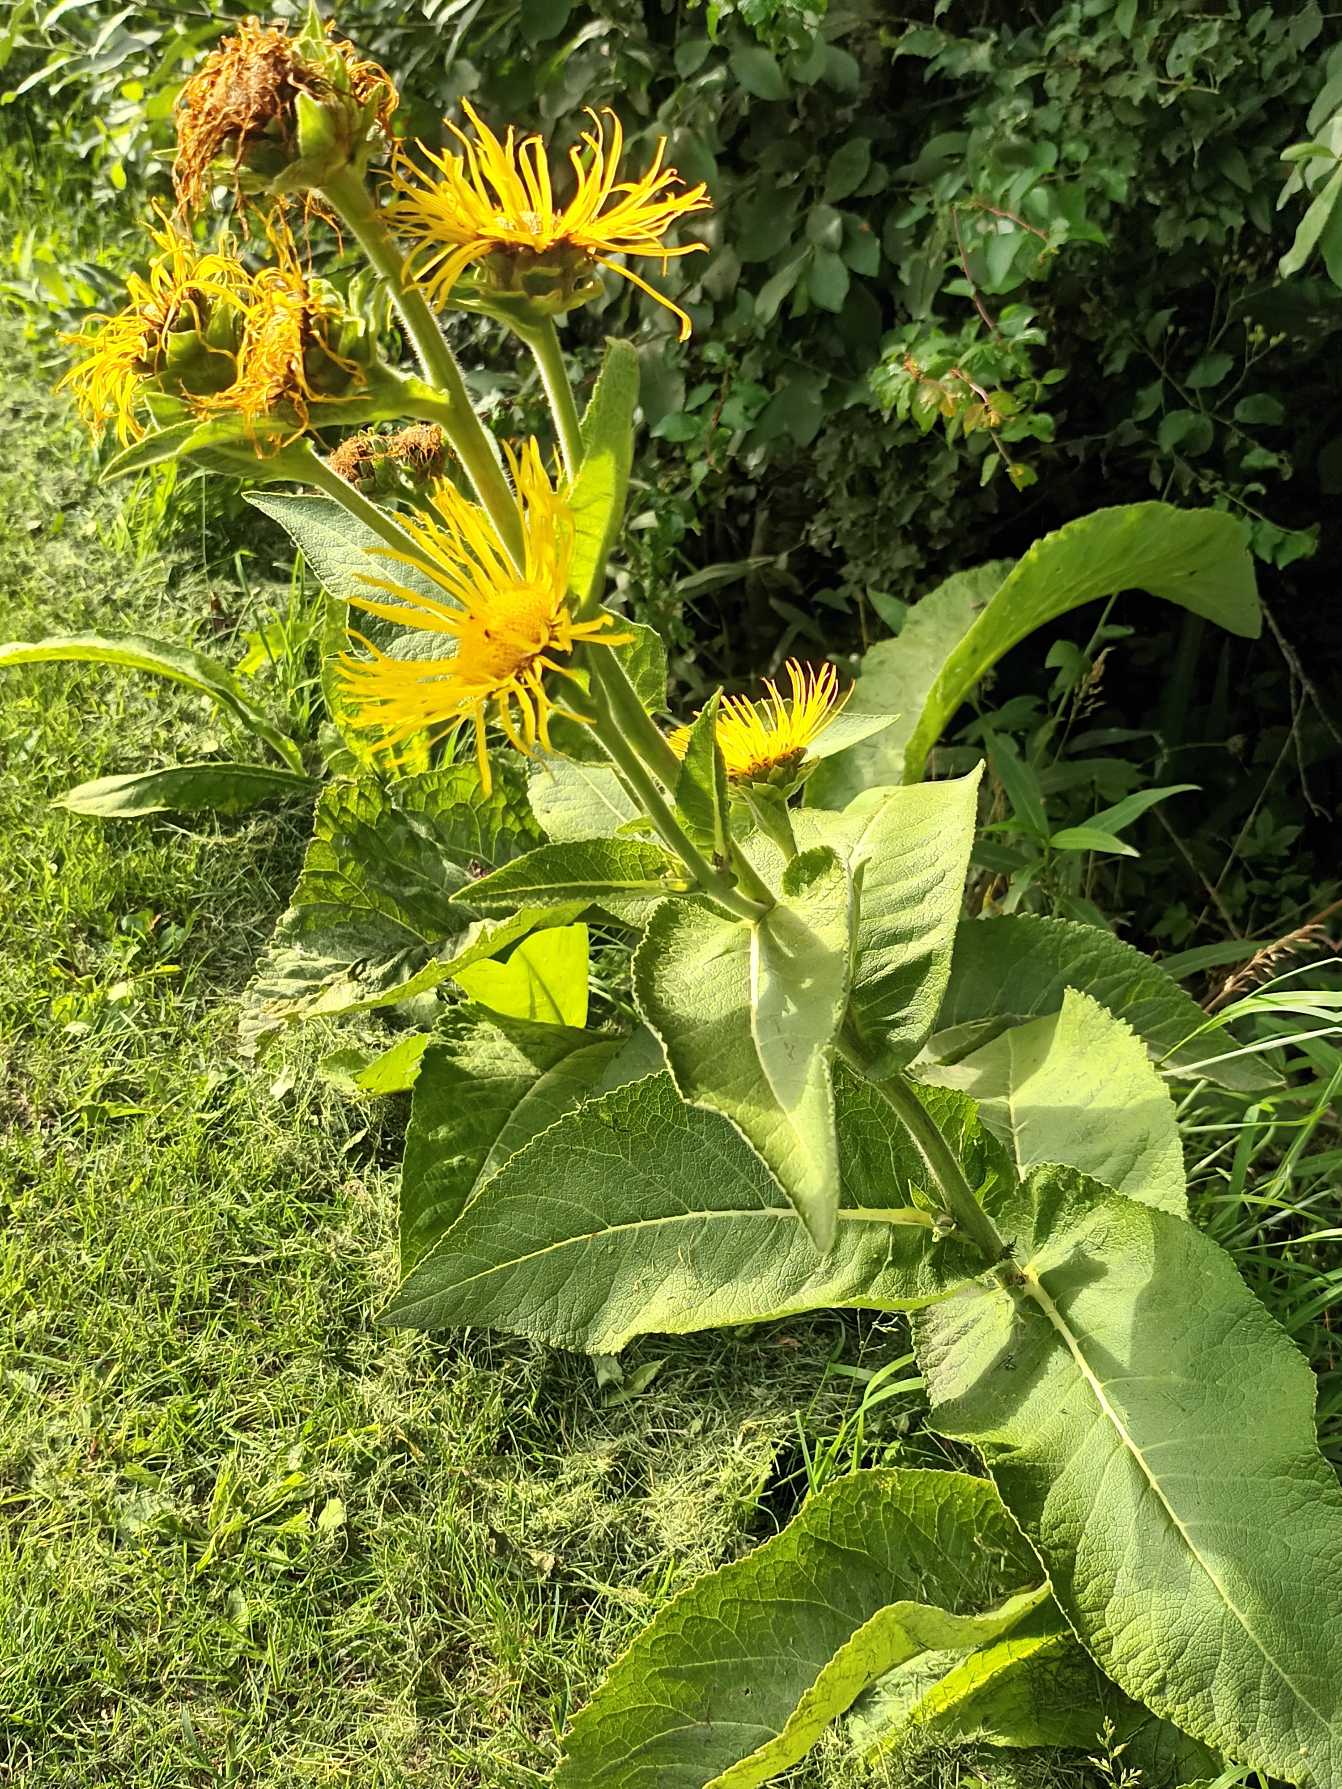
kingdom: Plantae
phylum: Tracheophyta
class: Magnoliopsida
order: Asterales
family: Asteraceae
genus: Inula
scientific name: Inula helenium
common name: Læge-alant
